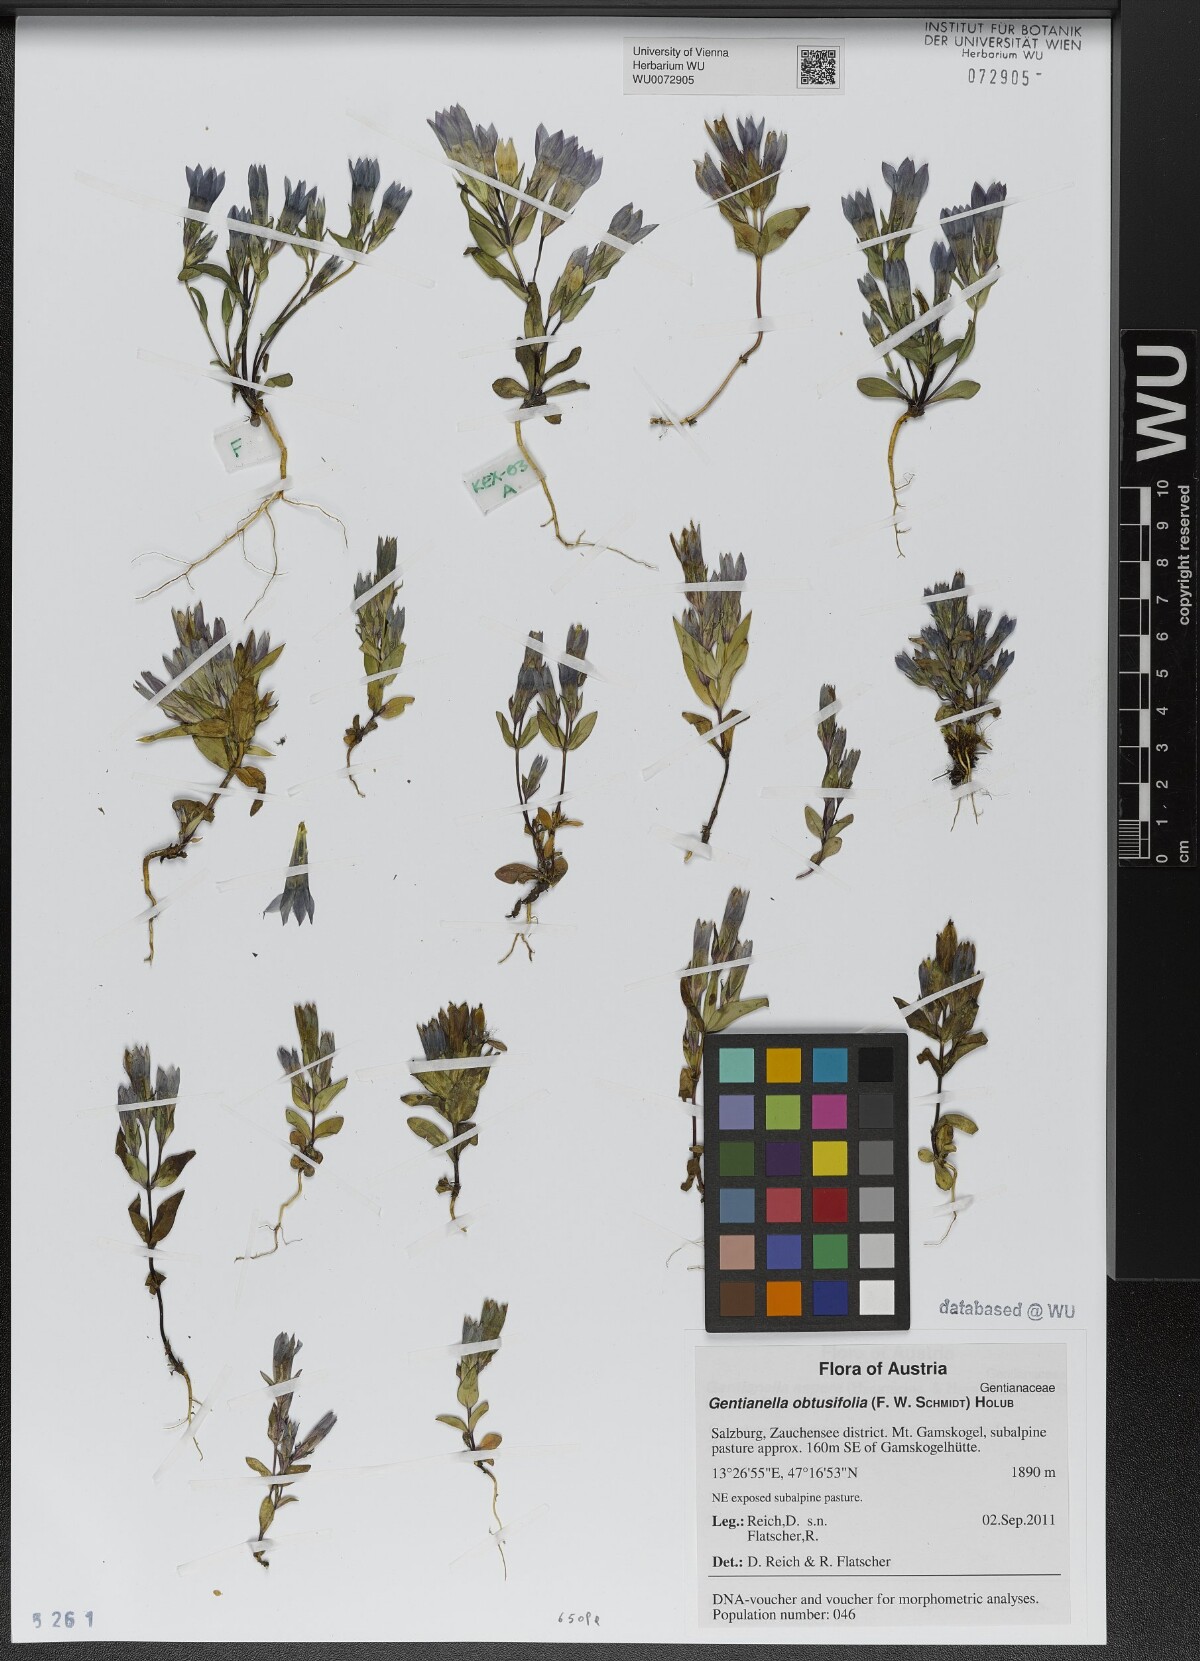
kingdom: Plantae
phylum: Tracheophyta
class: Magnoliopsida
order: Gentianales
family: Gentianaceae
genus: Gentianella
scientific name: Gentianella obtusifolia
